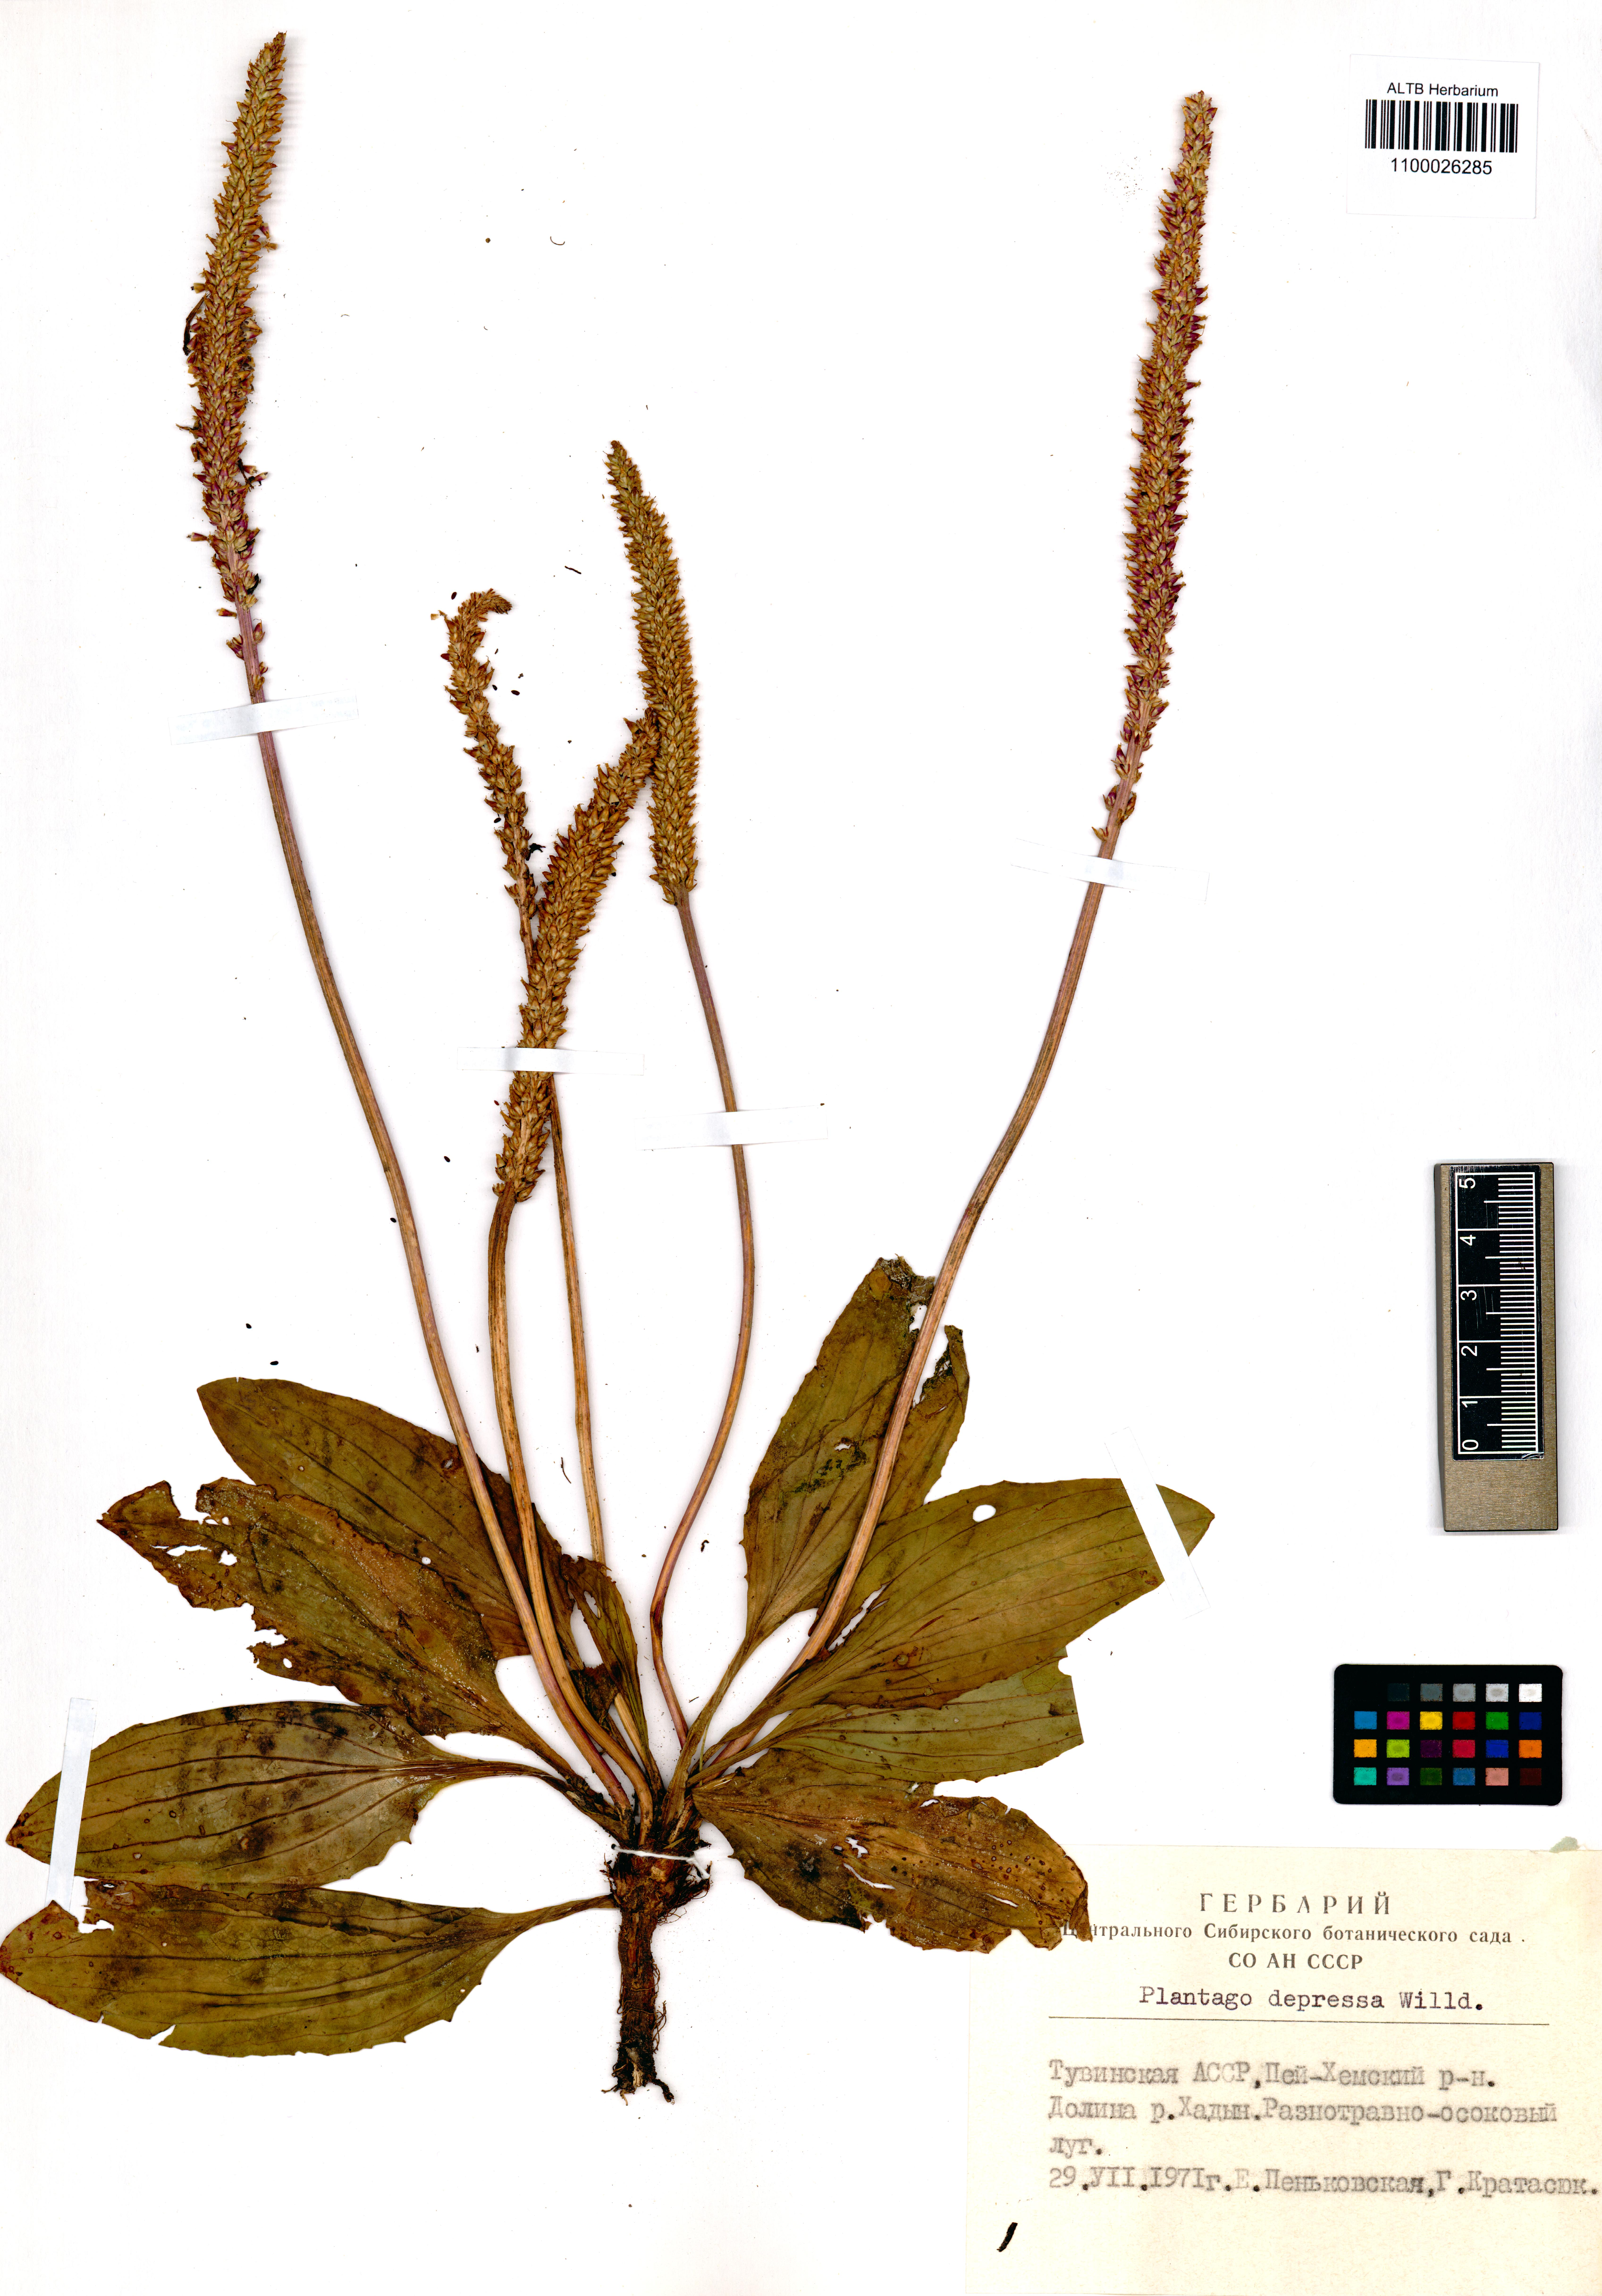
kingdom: Plantae
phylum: Tracheophyta
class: Magnoliopsida
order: Lamiales
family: Plantaginaceae
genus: Plantago
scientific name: Plantago depressa
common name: Depressed plantain
